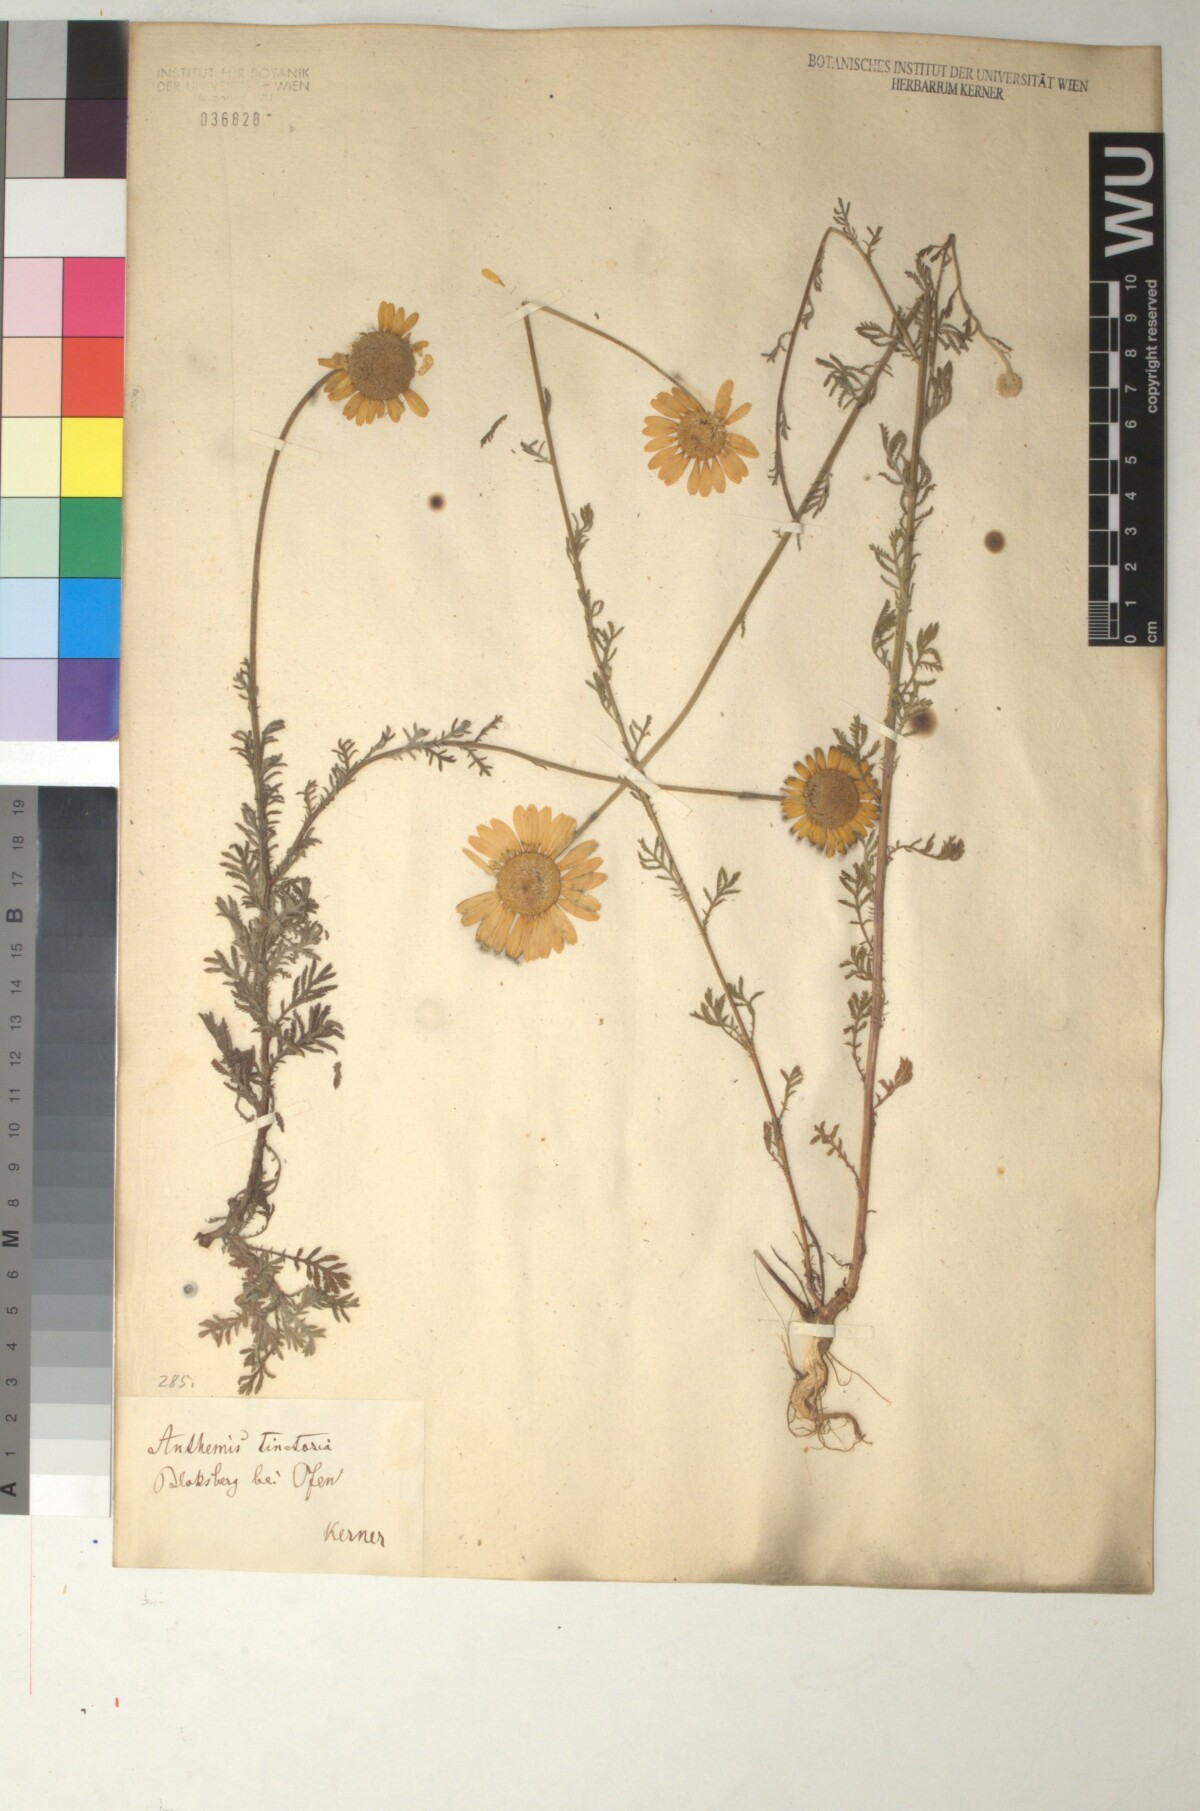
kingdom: Plantae
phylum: Tracheophyta
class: Magnoliopsida
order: Asterales
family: Asteraceae
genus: Cota
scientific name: Cota tinctoria
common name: Golden chamomile
